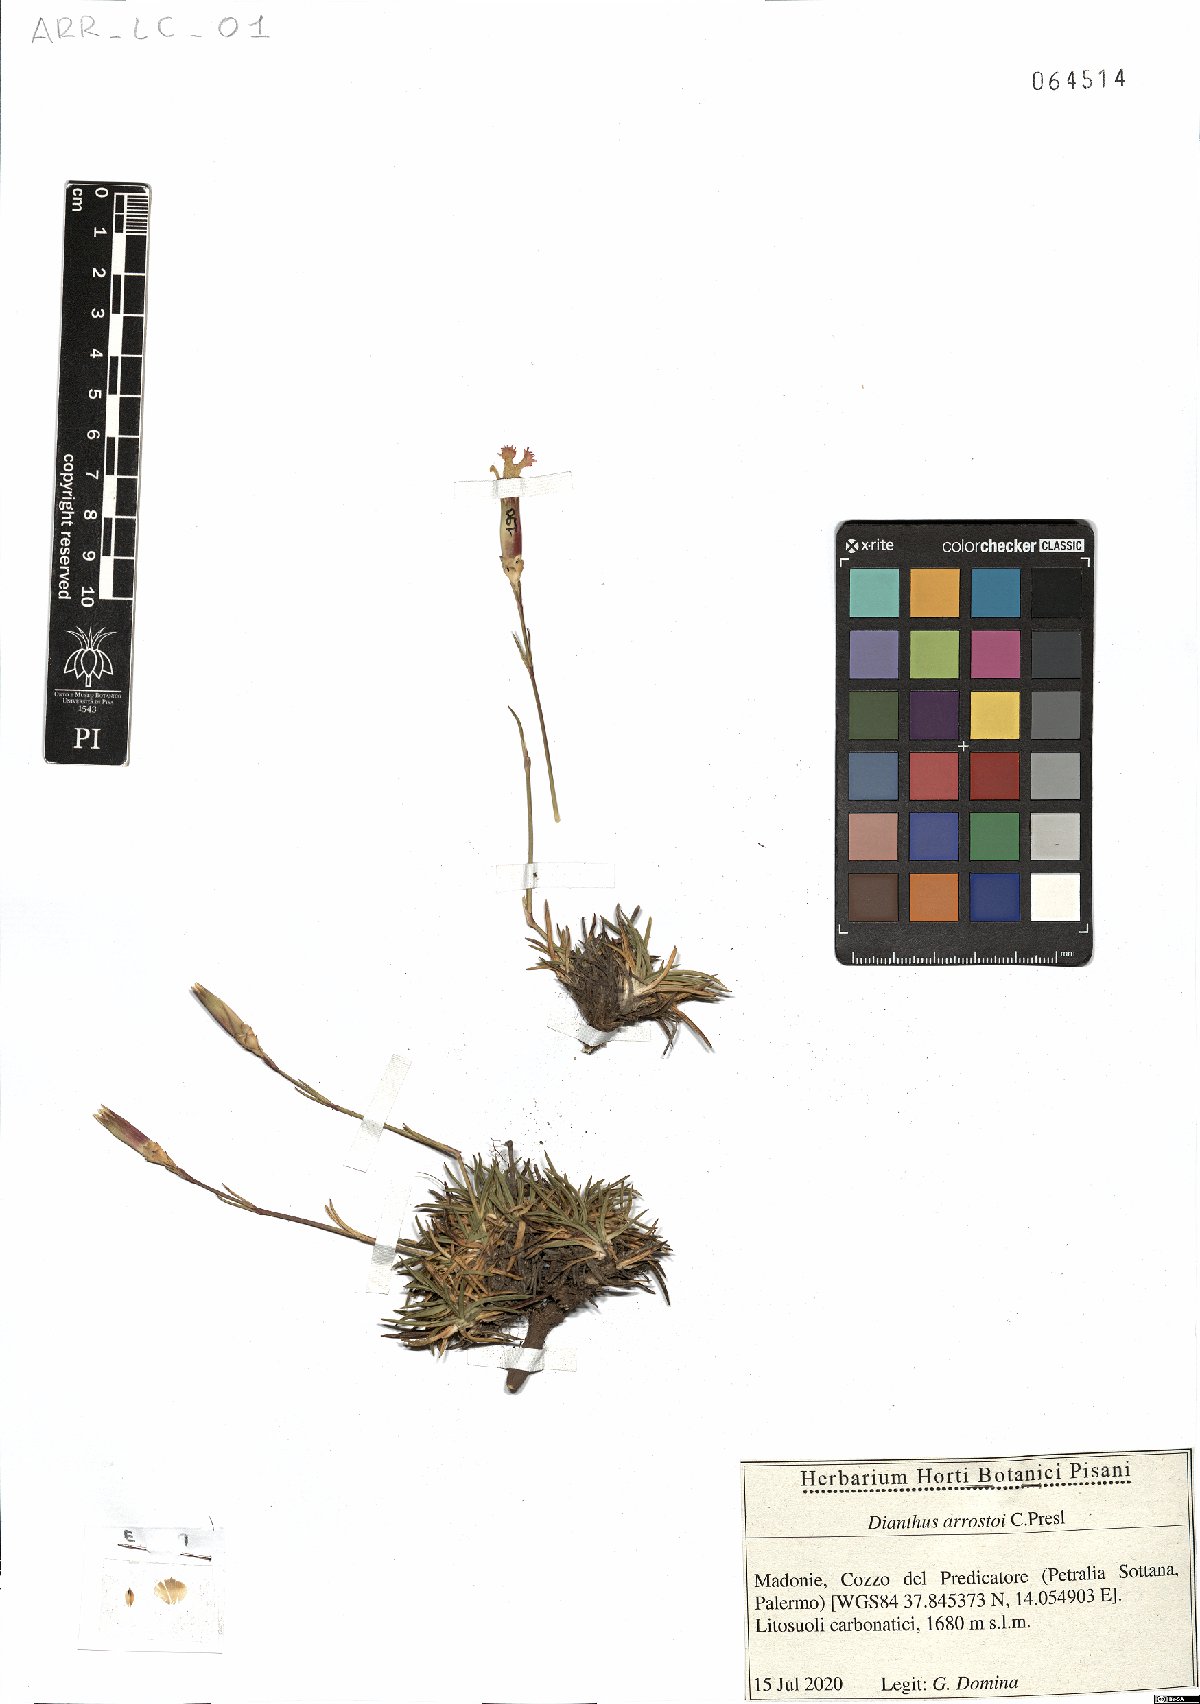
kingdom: Plantae
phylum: Tracheophyta
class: Magnoliopsida
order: Caryophyllales
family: Caryophyllaceae
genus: Dianthus
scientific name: Dianthus arrostoi
